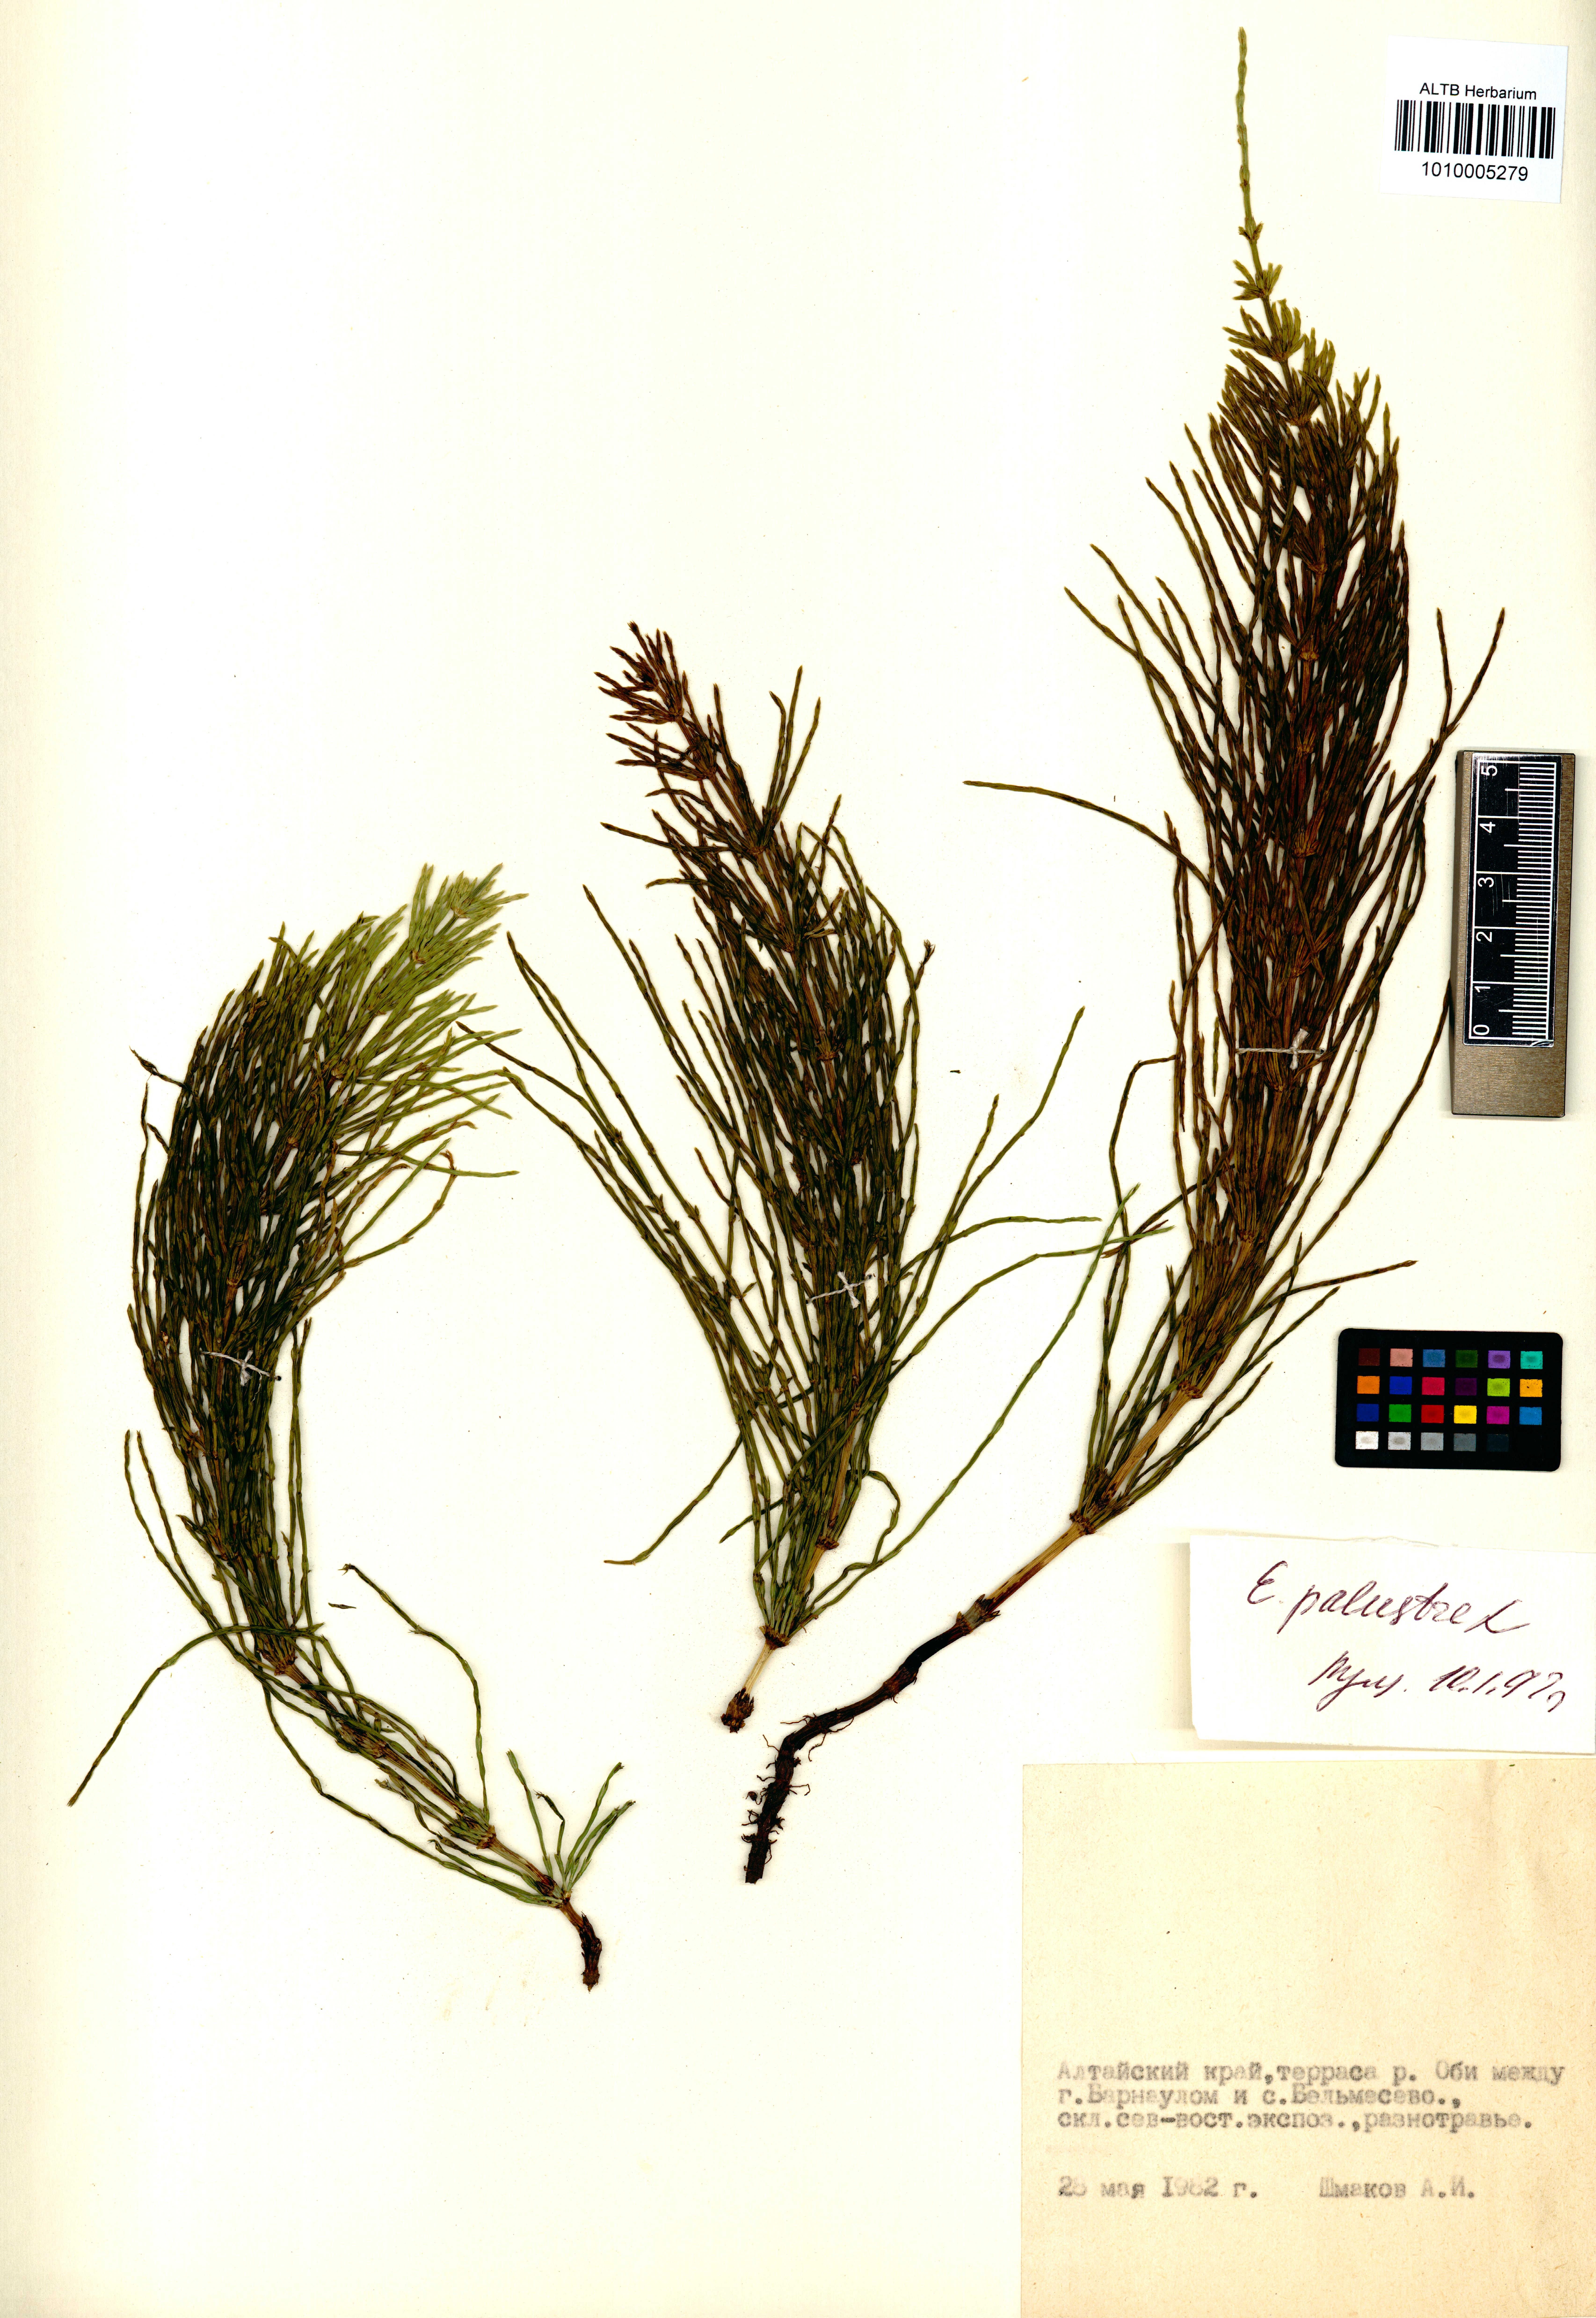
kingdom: Plantae
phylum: Tracheophyta
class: Polypodiopsida
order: Equisetales
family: Equisetaceae
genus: Equisetum
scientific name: Equisetum palustre
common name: Marsh horsetail
